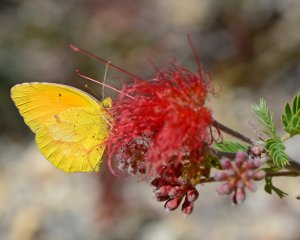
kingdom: Animalia
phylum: Arthropoda
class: Insecta
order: Lepidoptera
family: Pieridae
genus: Abaeis
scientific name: Abaeis nicippe
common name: Sleepy Orange
